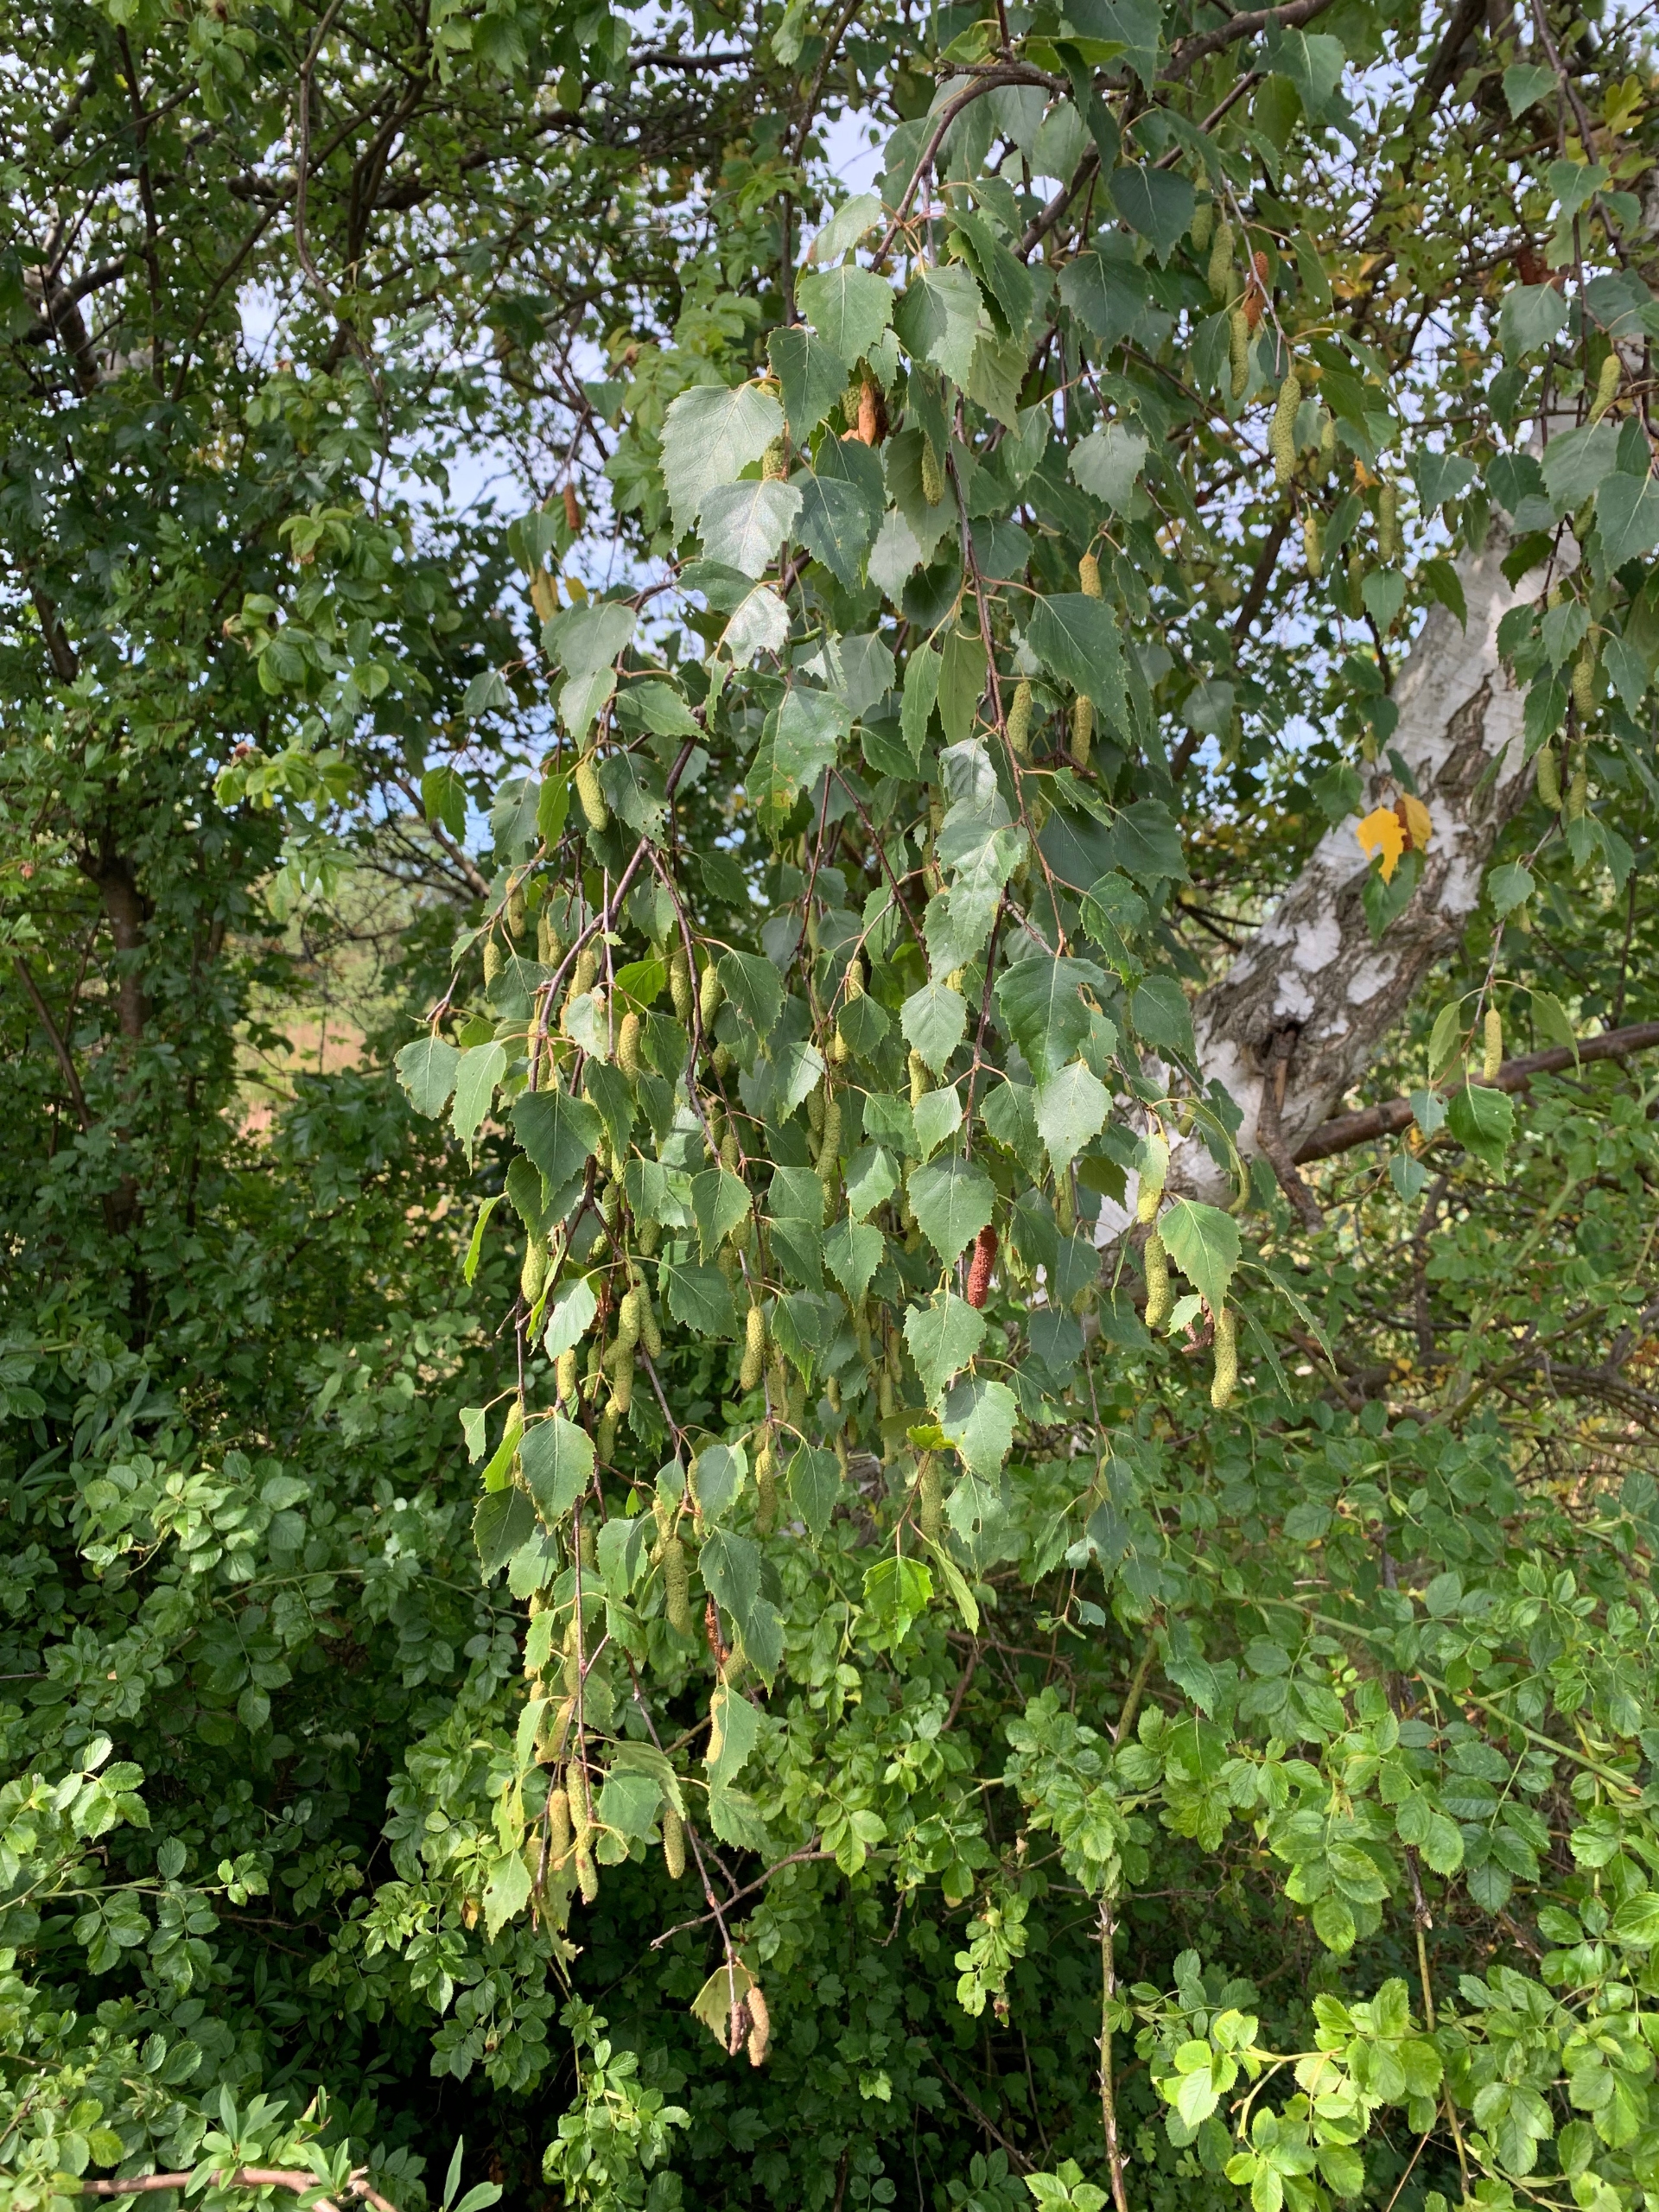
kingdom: Plantae
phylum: Tracheophyta
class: Magnoliopsida
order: Fagales
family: Betulaceae
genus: Betula
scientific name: Betula pendula
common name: Vorte-birk
